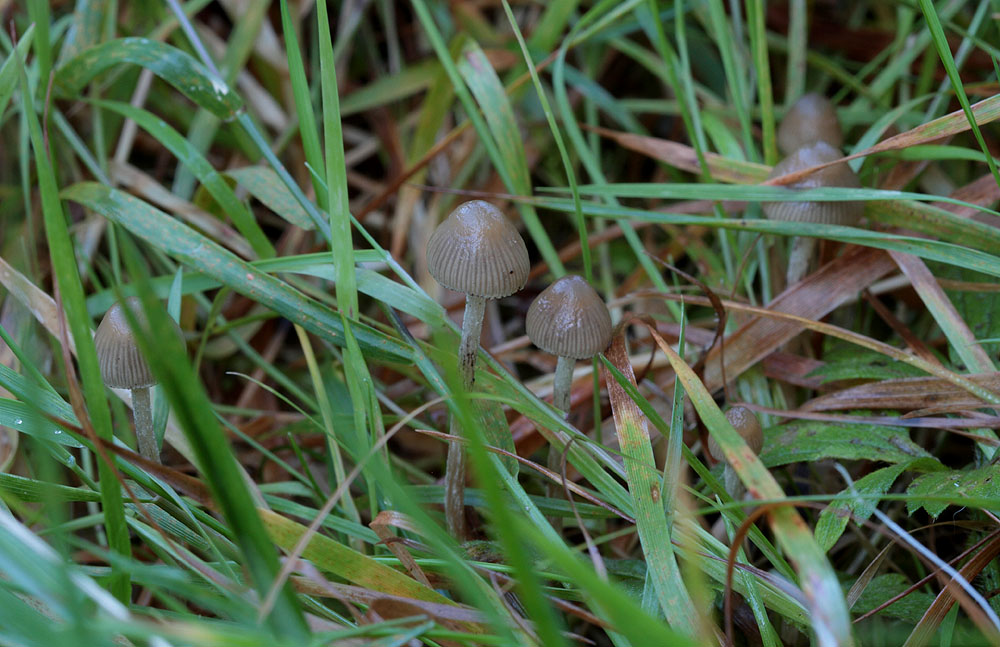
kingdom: Fungi
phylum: Basidiomycota
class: Agaricomycetes
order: Agaricales
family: Hymenogastraceae
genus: Psilocybe
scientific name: Psilocybe semilanceata
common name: spids nøgenhat
